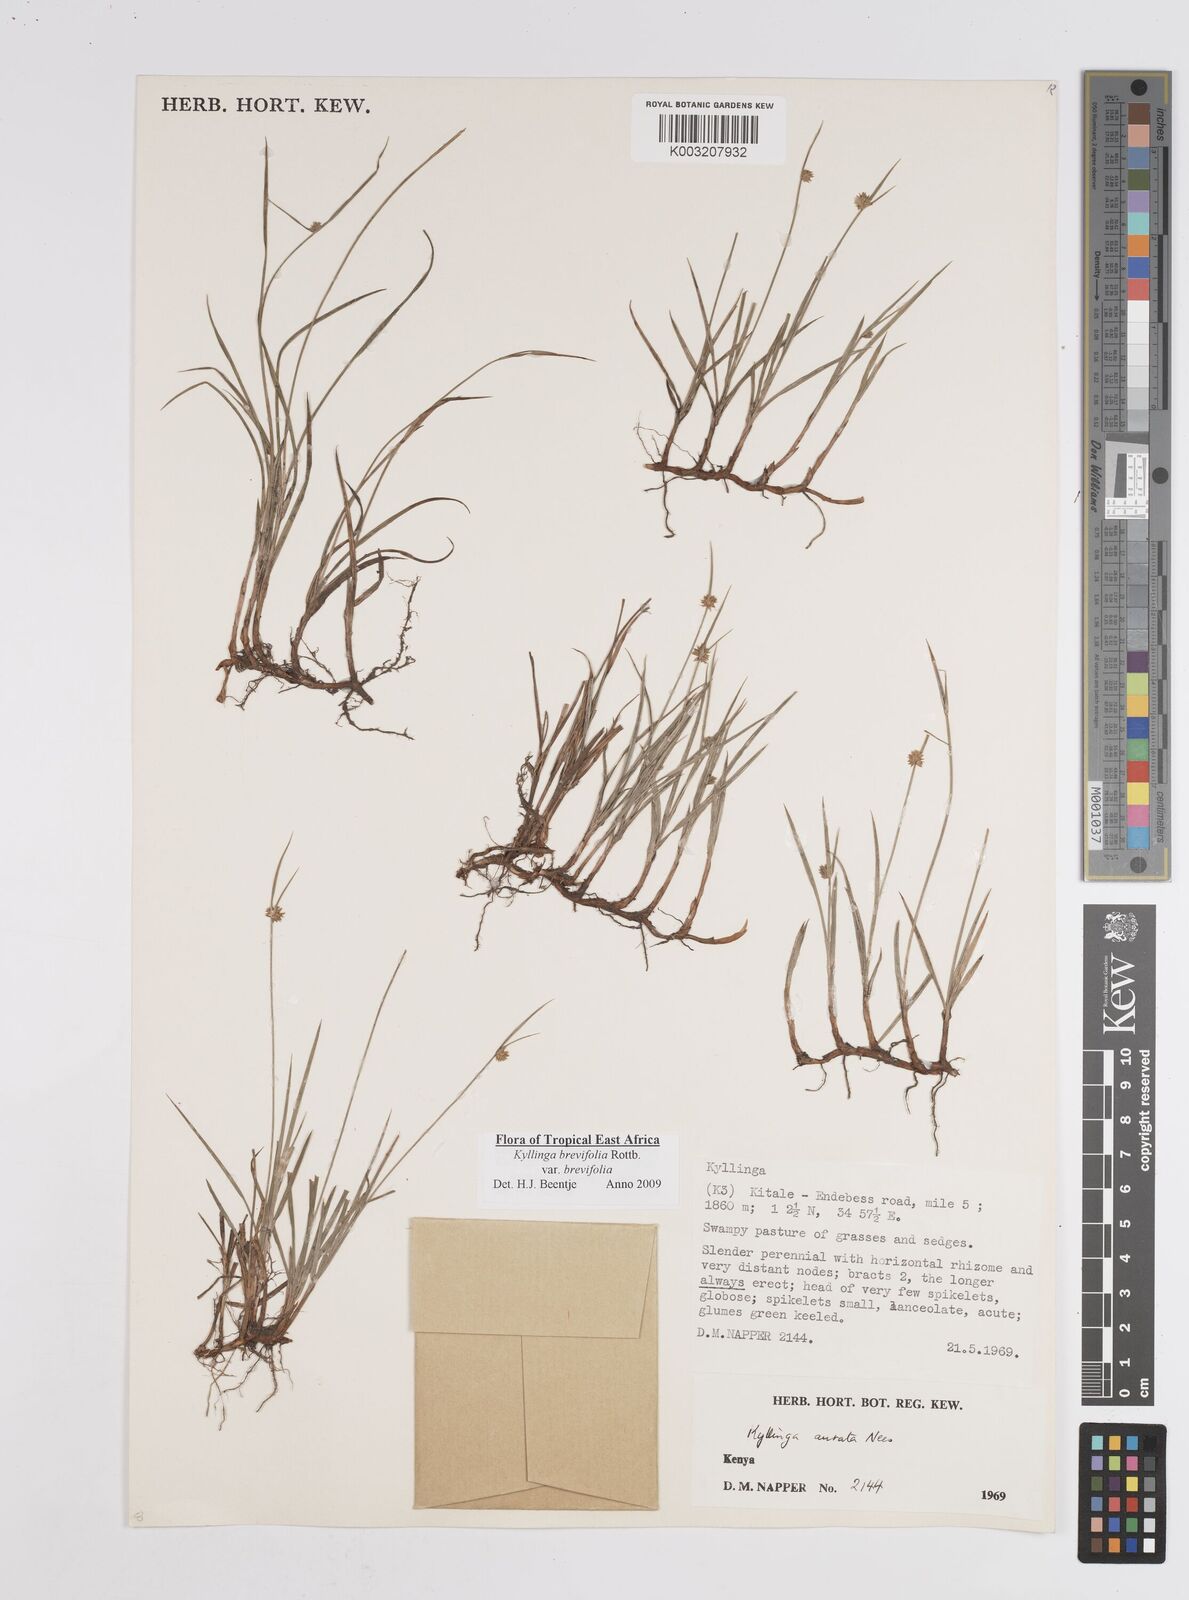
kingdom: Plantae
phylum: Tracheophyta
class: Liliopsida
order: Poales
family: Cyperaceae
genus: Cyperus
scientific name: Cyperus brevifolius
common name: Globe kyllinga
